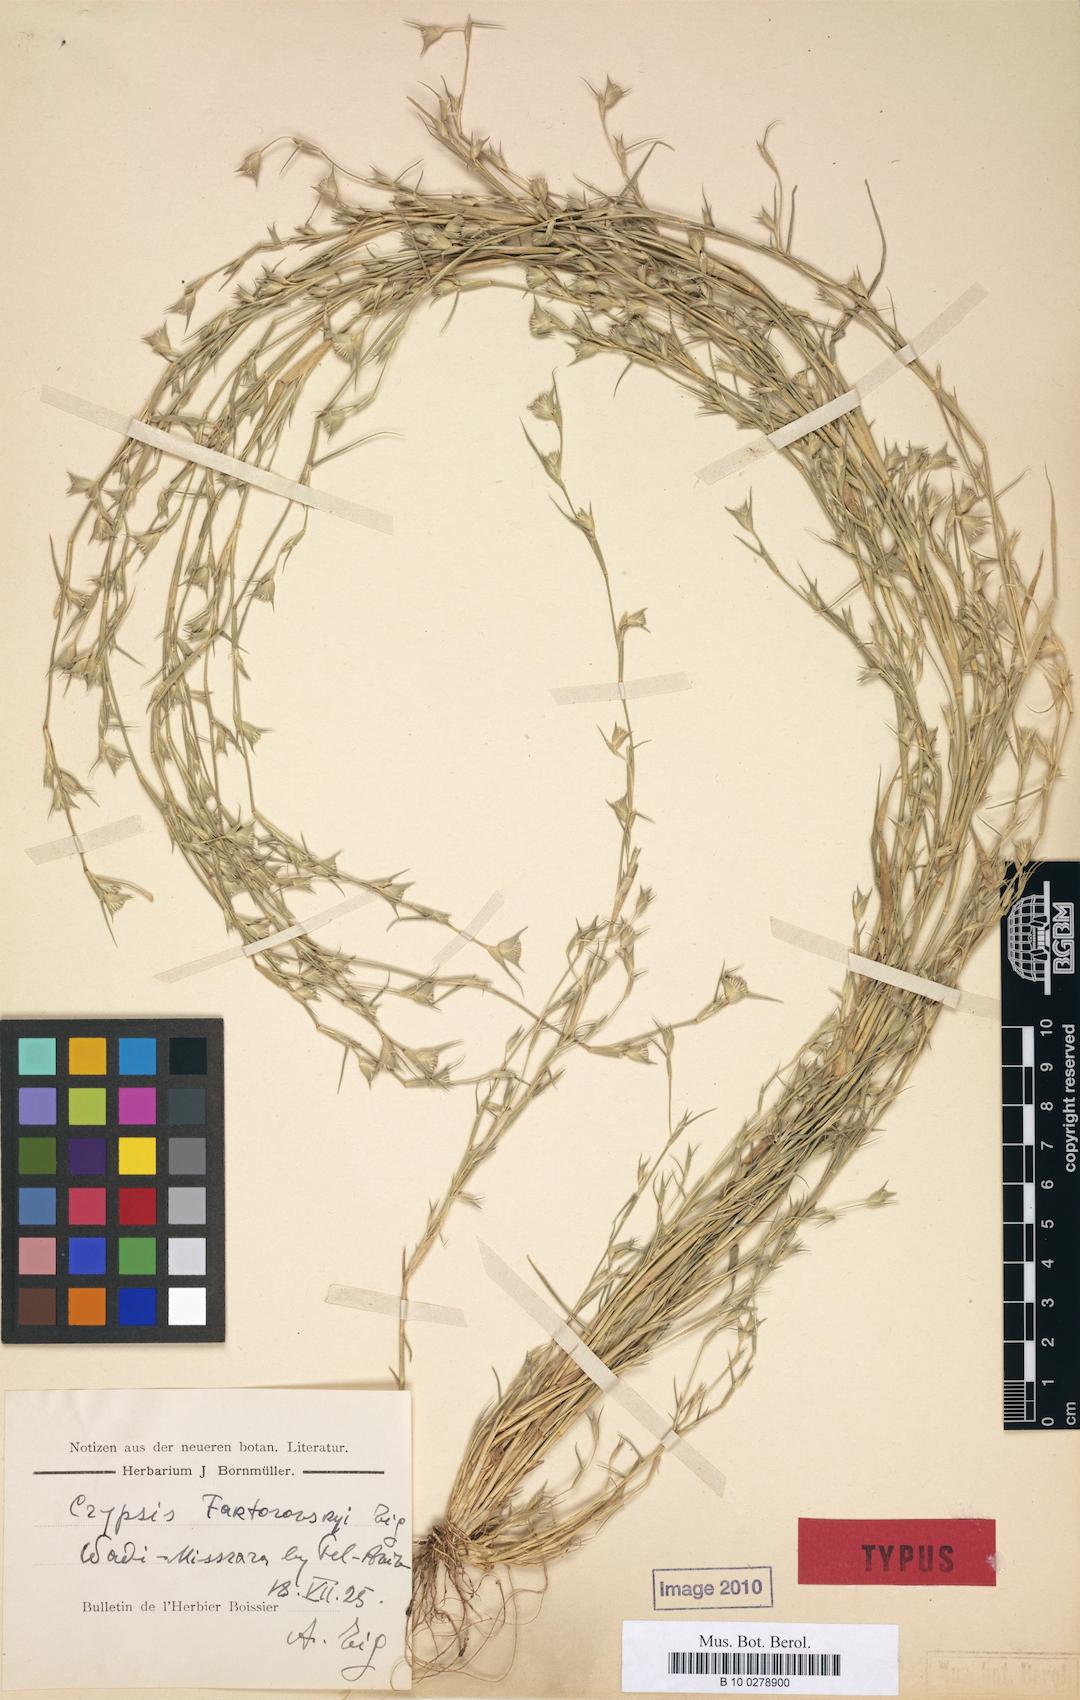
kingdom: Plantae
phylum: Tracheophyta
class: Liliopsida
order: Poales
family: Poaceae
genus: Sporobolus
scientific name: Sporobolus factorovskyi
